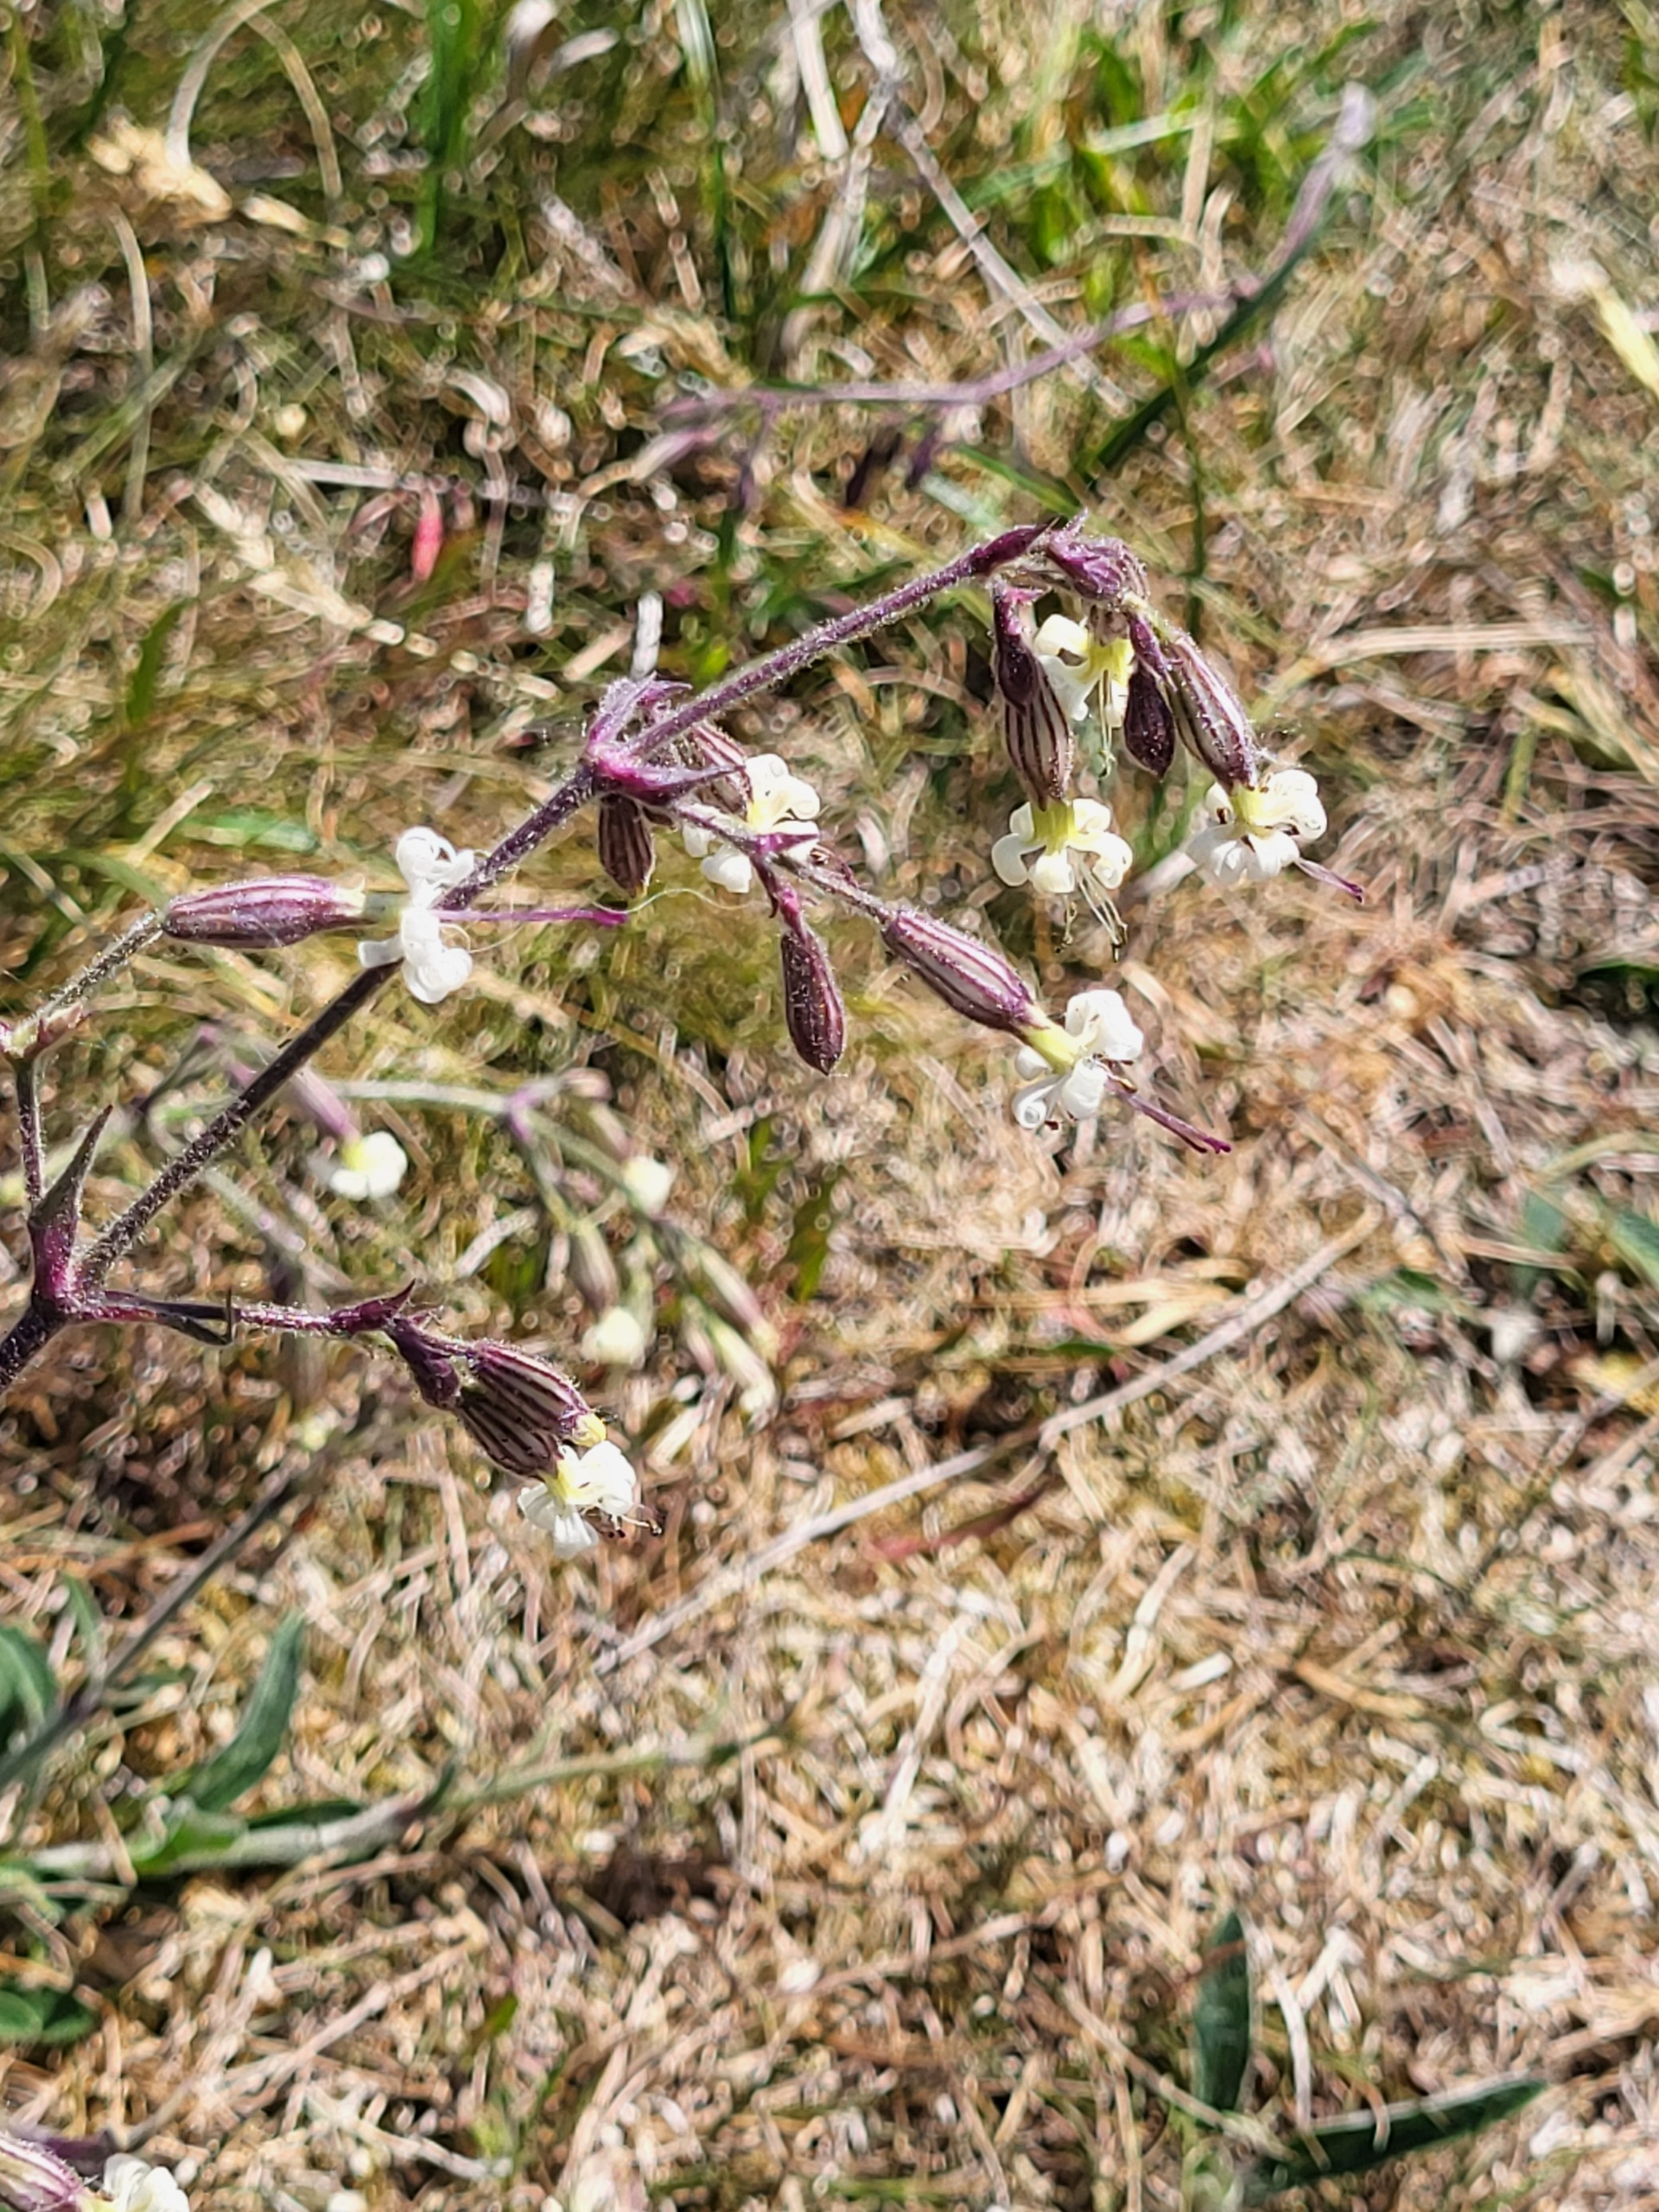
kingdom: Plantae
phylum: Tracheophyta
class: Magnoliopsida
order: Caryophyllales
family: Caryophyllaceae
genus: Silene
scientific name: Silene nutans
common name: Nikkende limurt
